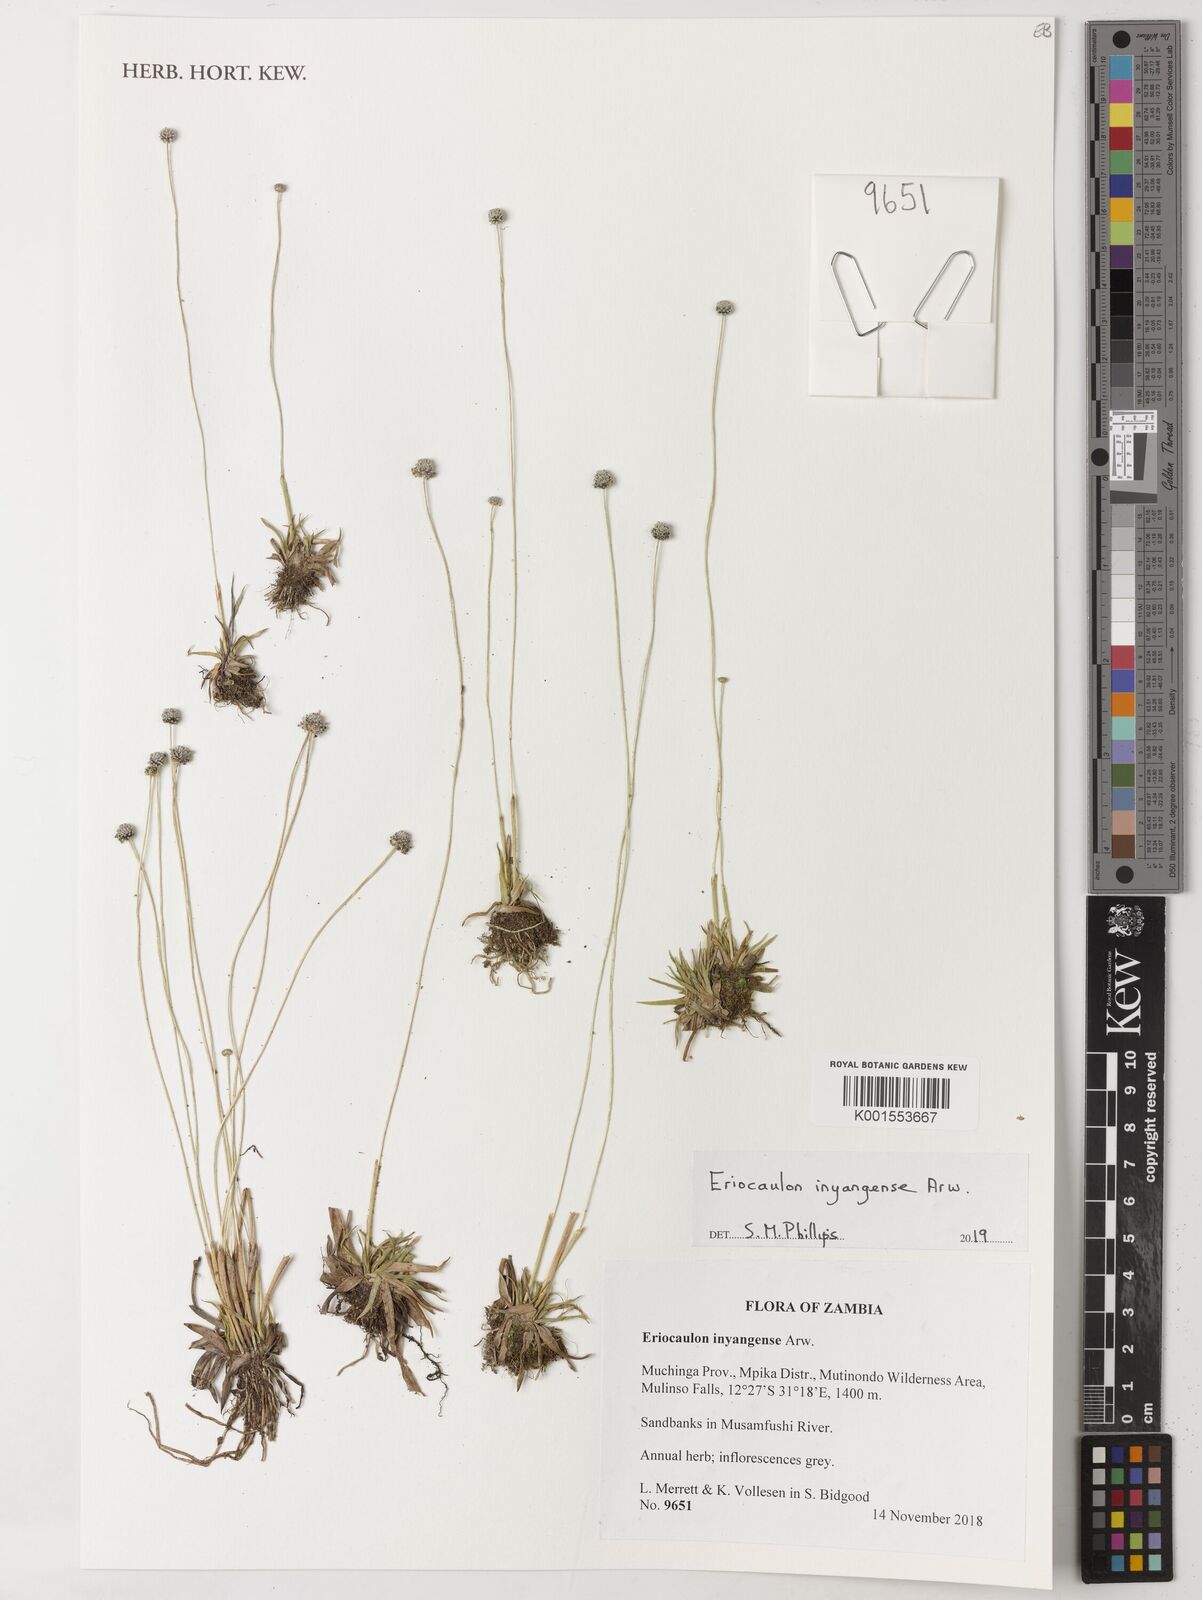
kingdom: Plantae
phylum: Tracheophyta
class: Liliopsida
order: Poales
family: Eriocaulaceae
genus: Eriocaulon
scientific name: Eriocaulon inyangense
